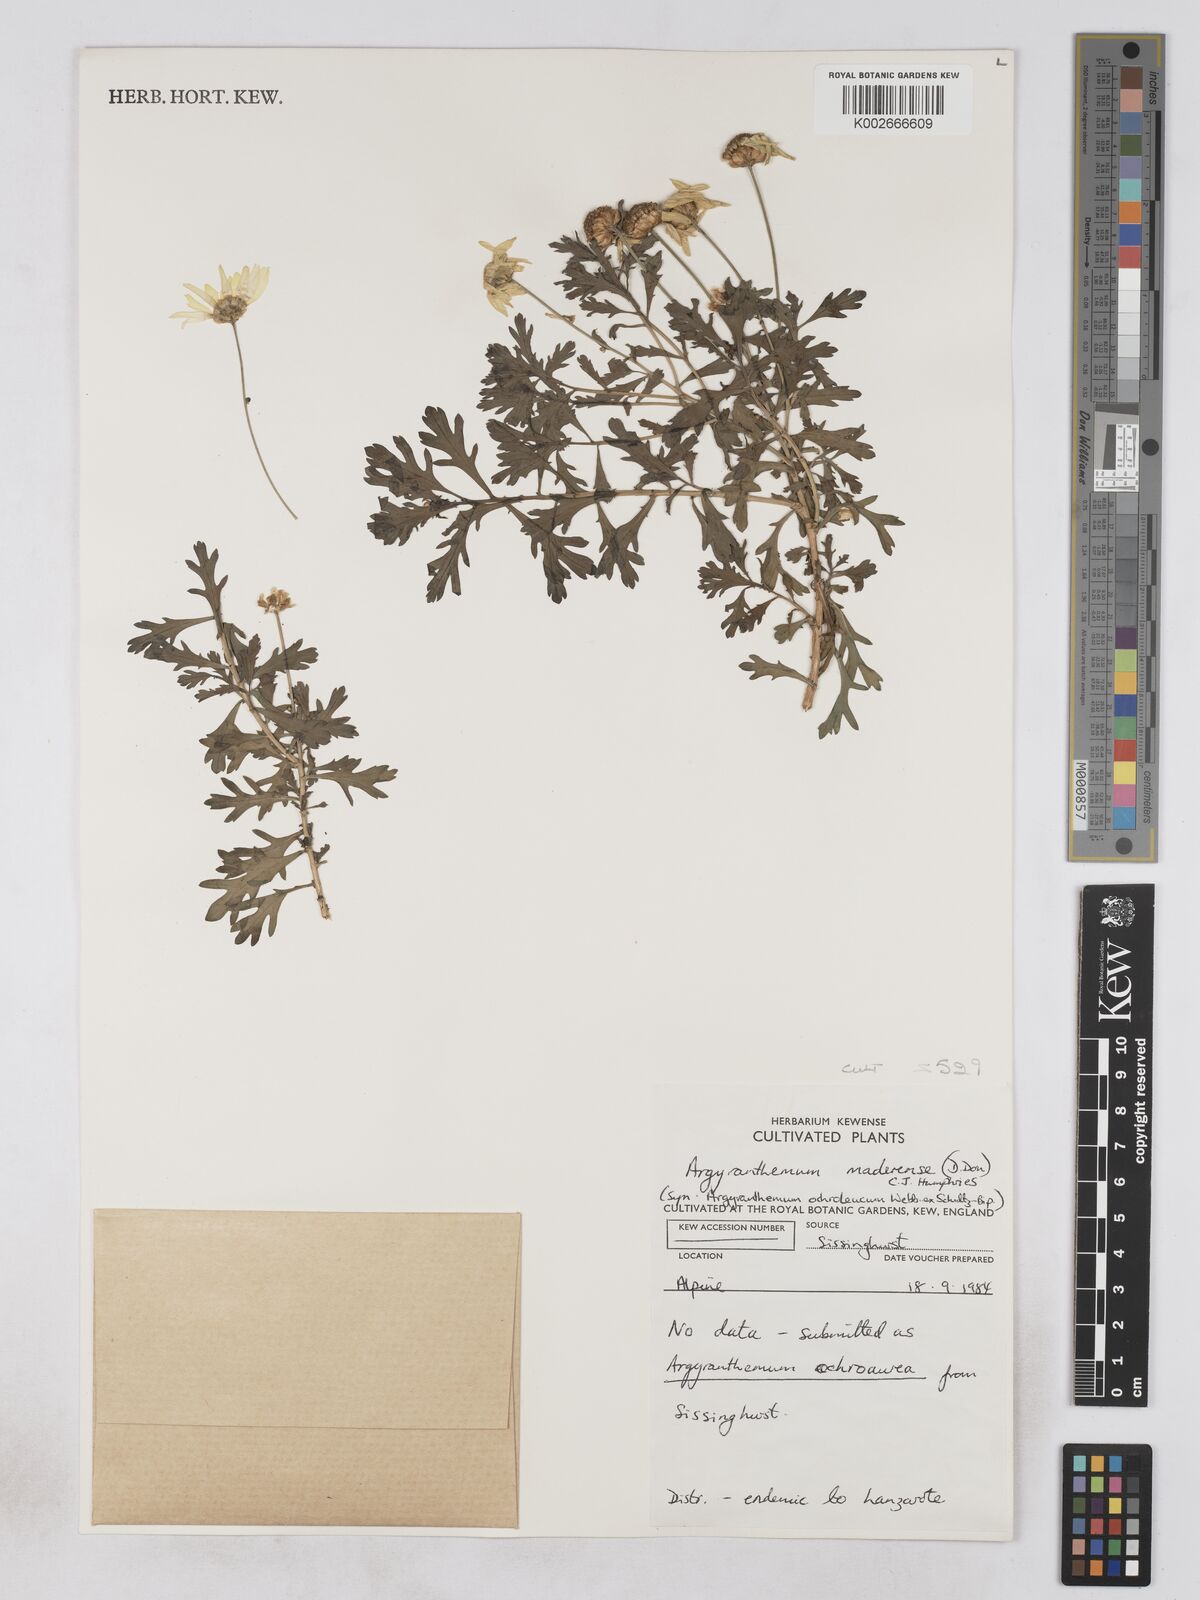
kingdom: Plantae
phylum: Tracheophyta
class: Magnoliopsida
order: Asterales
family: Asteraceae
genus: Argyranthemum
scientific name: Argyranthemum maderense
